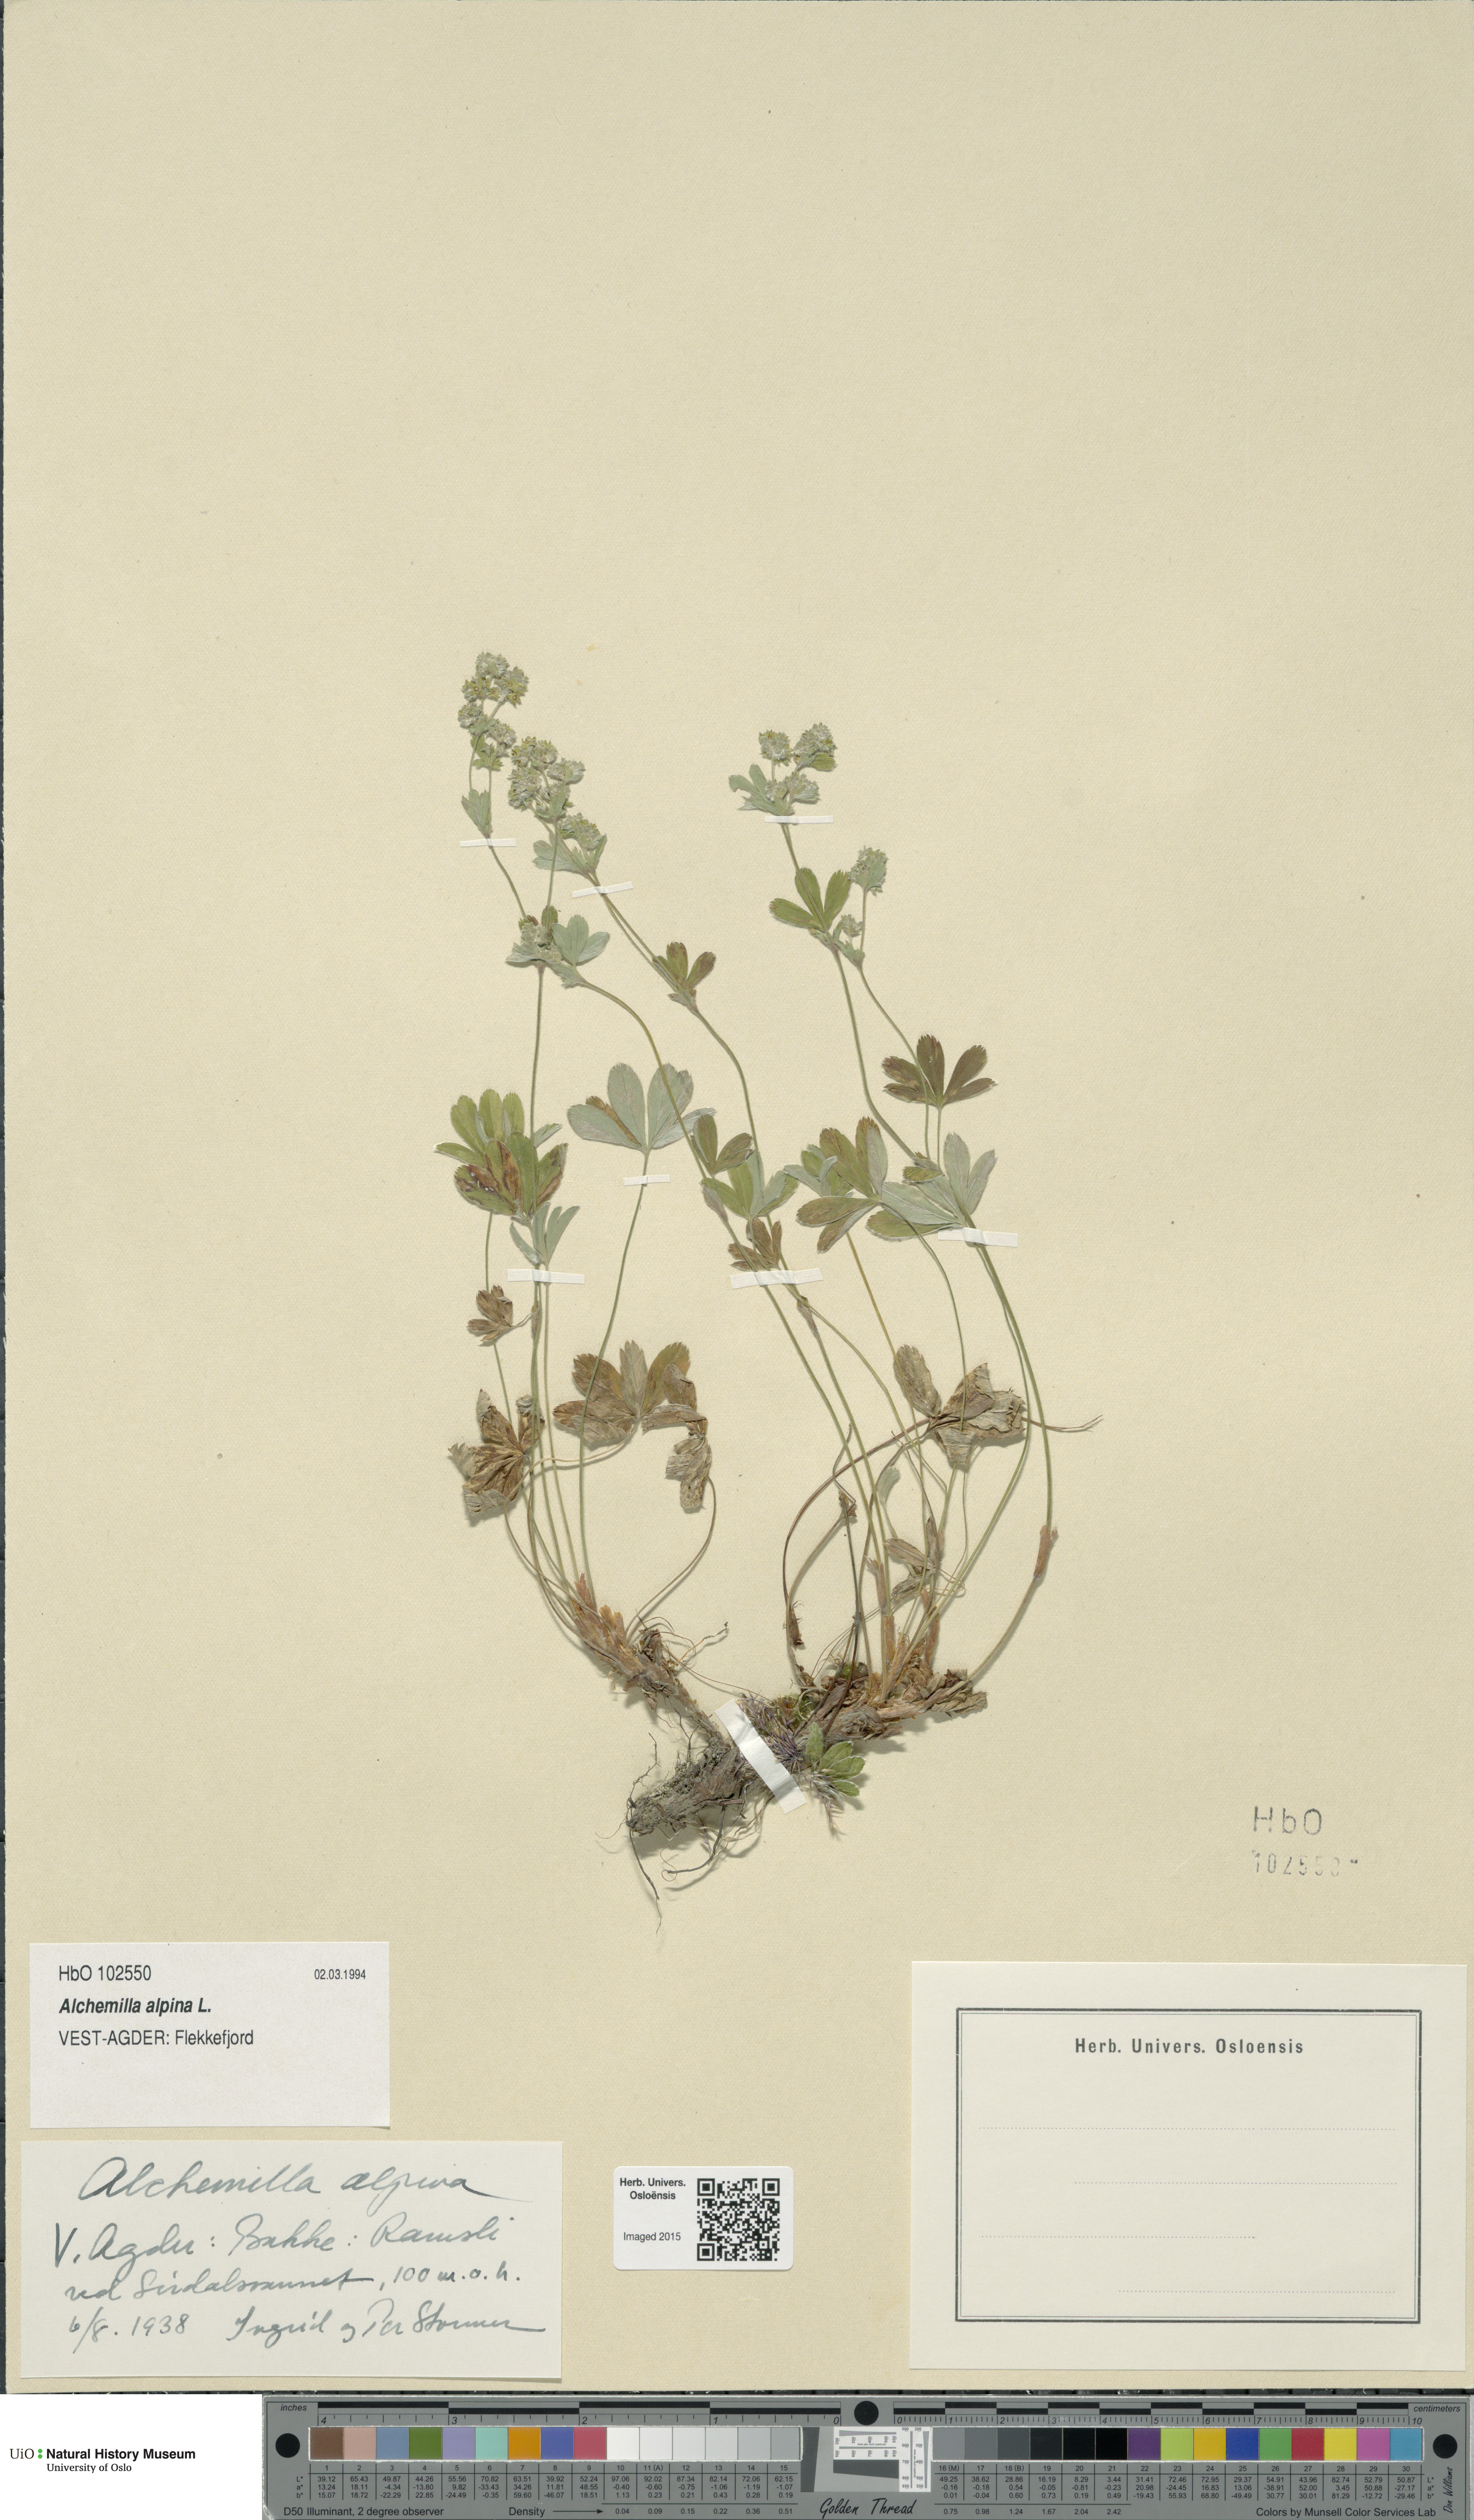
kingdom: Plantae
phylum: Tracheophyta
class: Magnoliopsida
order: Rosales
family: Rosaceae
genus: Alchemilla
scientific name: Alchemilla alpina
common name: Alpine lady's-mantle
